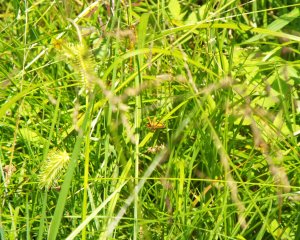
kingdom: Animalia
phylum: Arthropoda
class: Insecta
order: Lepidoptera
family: Hesperiidae
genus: Ancyloxypha
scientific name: Ancyloxypha numitor
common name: Least Skipper
